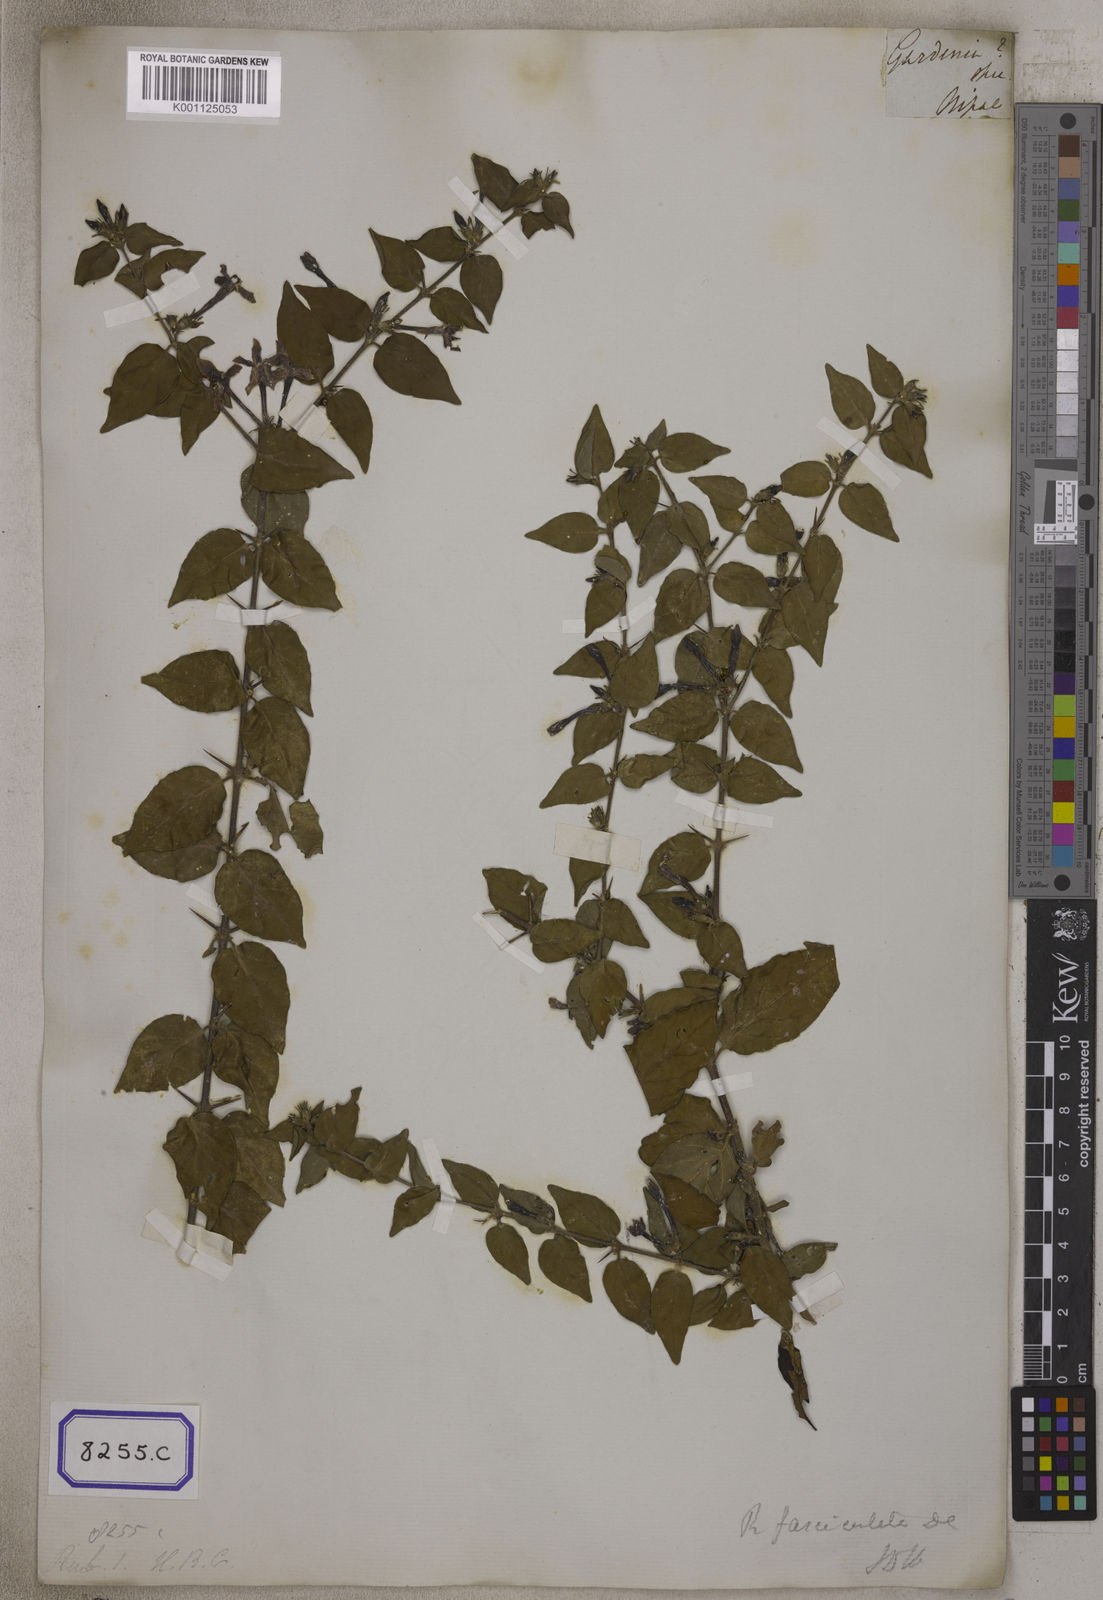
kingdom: Plantae
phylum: Tracheophyta
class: Magnoliopsida
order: Gentianales
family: Rubiaceae
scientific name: Rubiaceae
